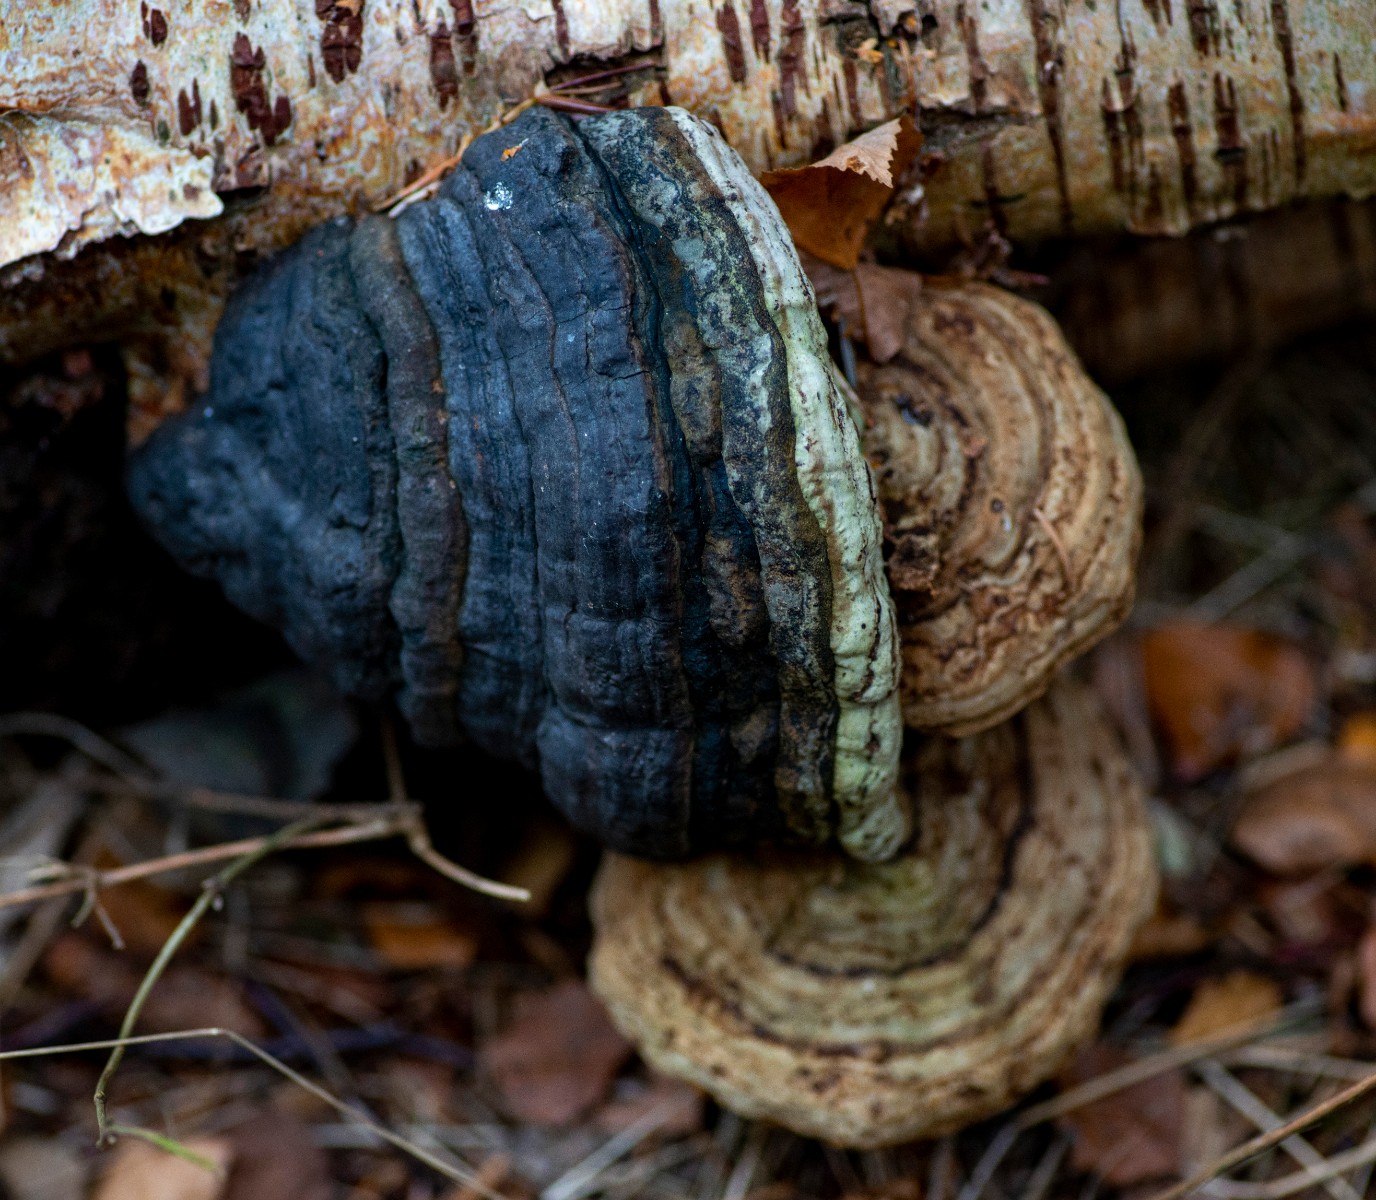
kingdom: Fungi
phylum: Basidiomycota
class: Agaricomycetes
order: Polyporales
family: Polyporaceae
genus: Fomes
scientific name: Fomes fomentarius
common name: tøndersvamp
